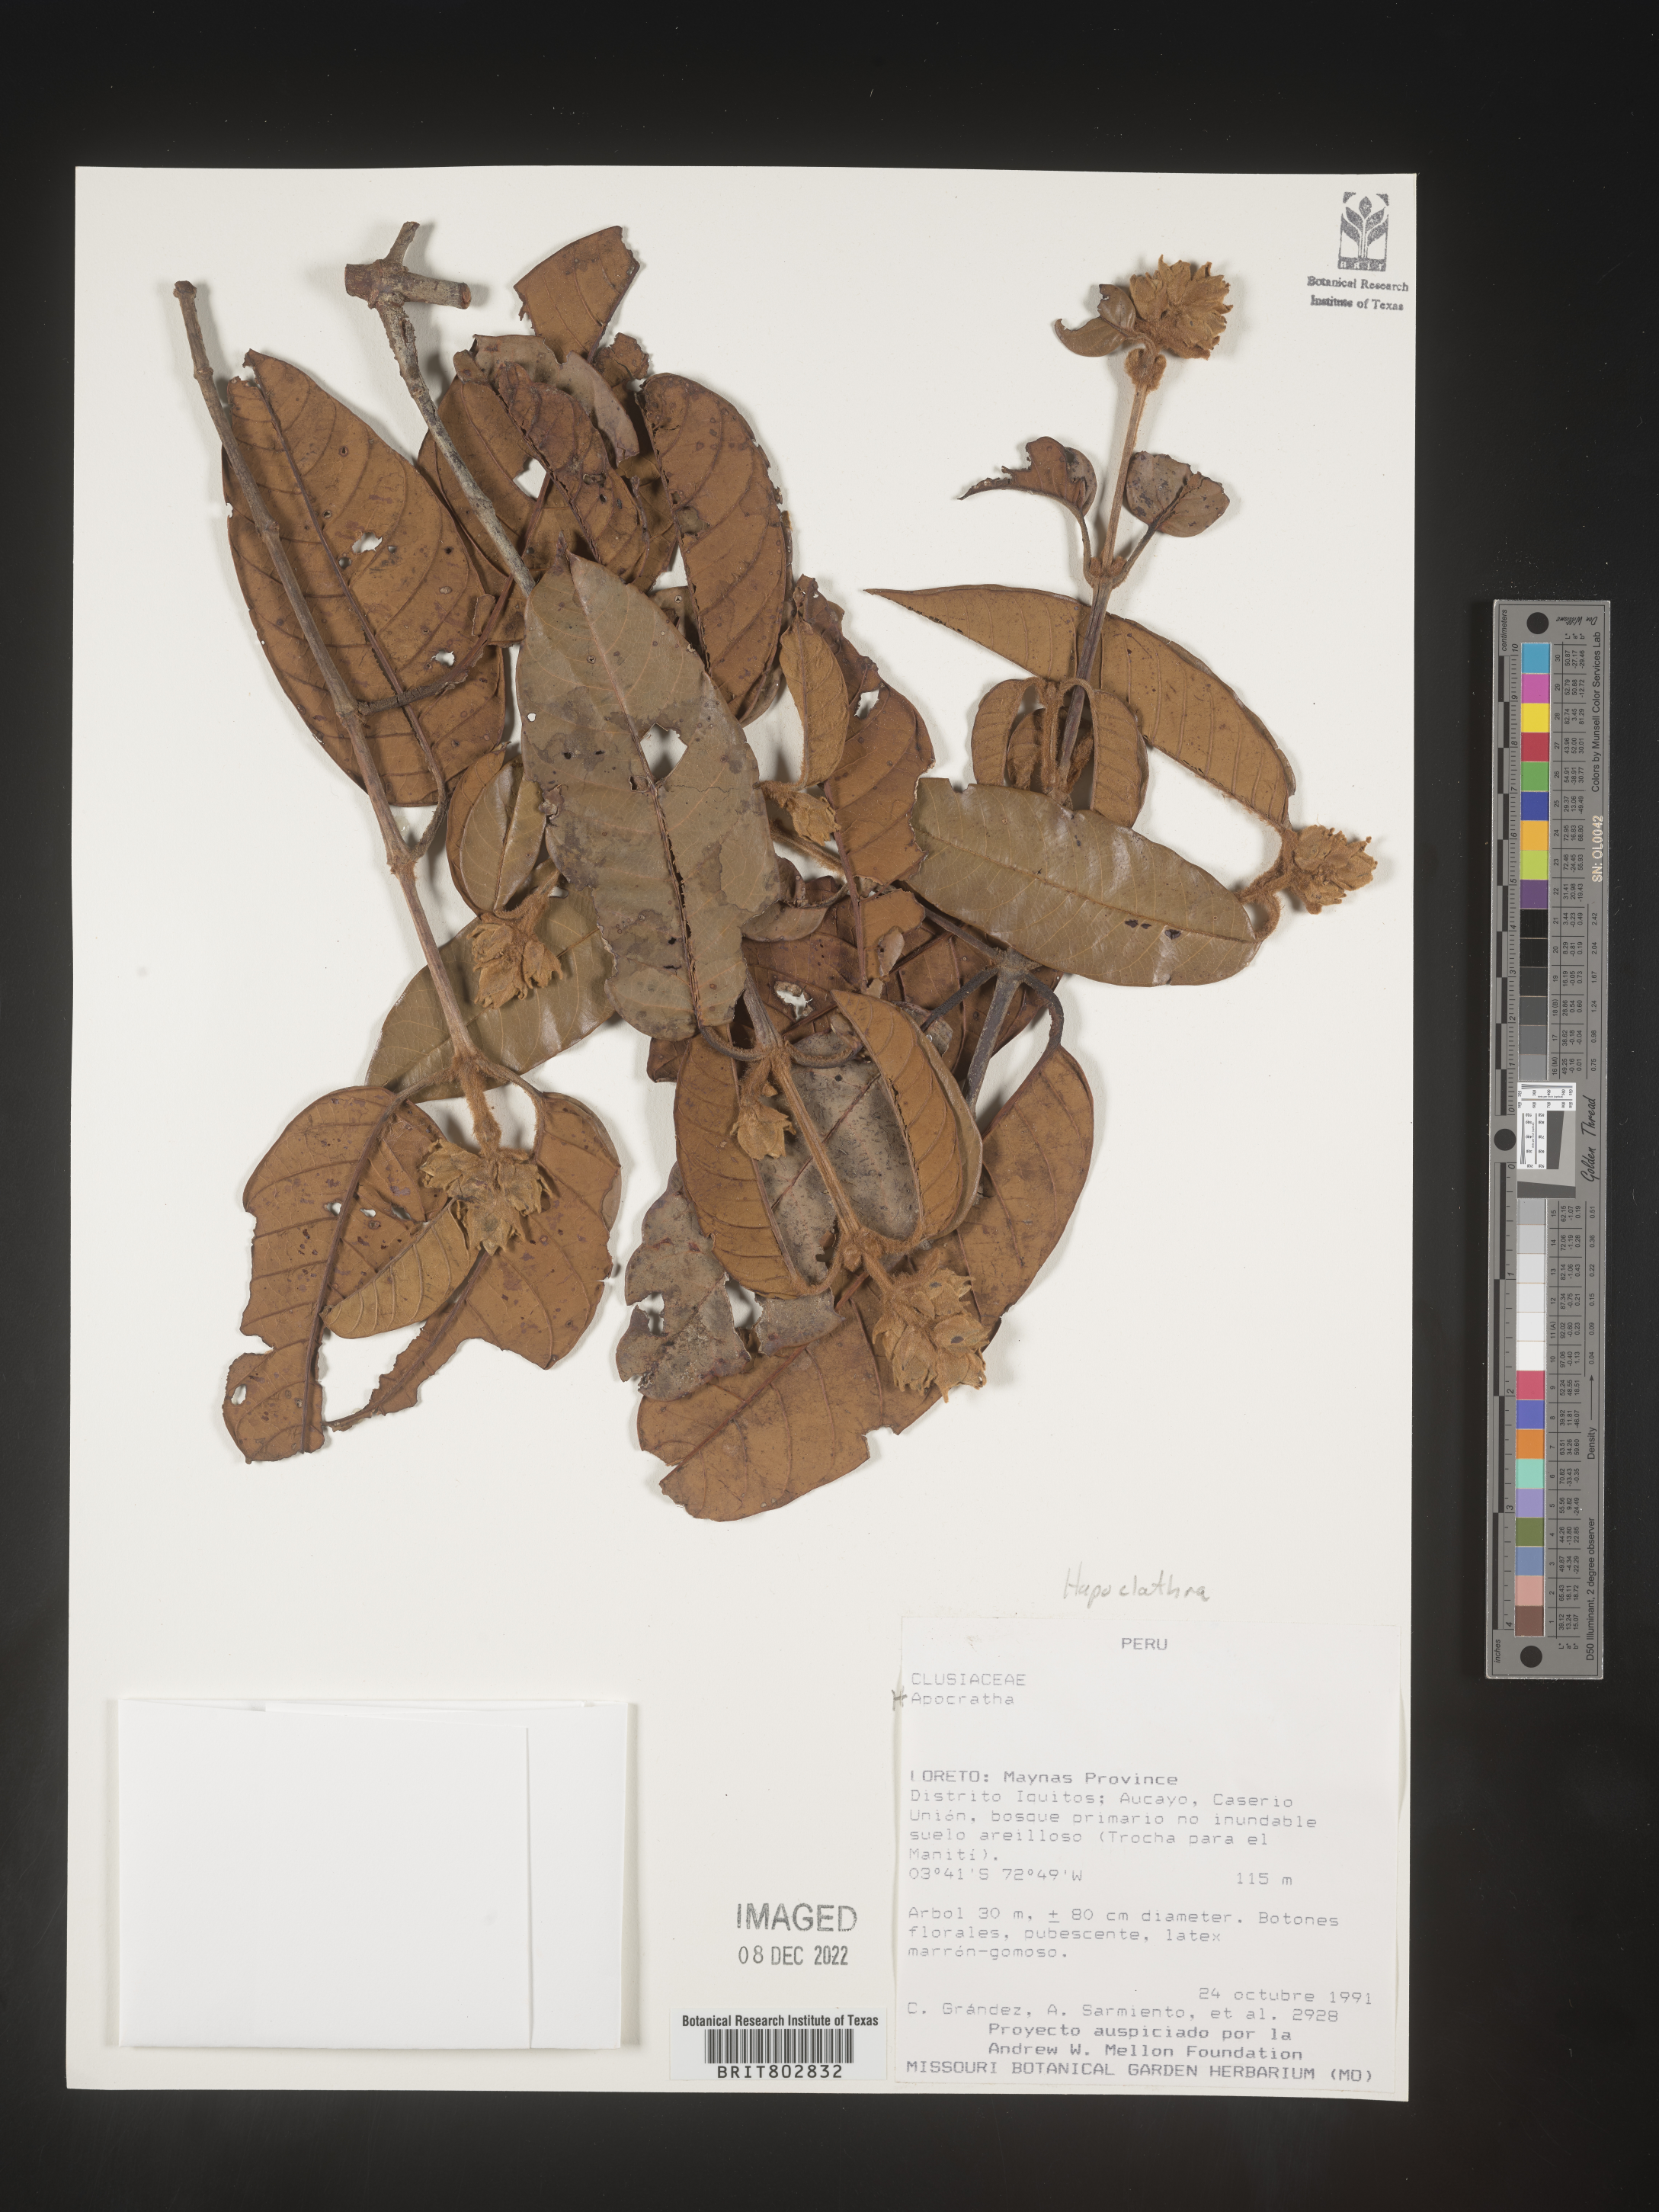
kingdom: Plantae
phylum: Tracheophyta
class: Magnoliopsida
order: Malpighiales
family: Calophyllaceae
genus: Haploclathra
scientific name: Haploclathra
